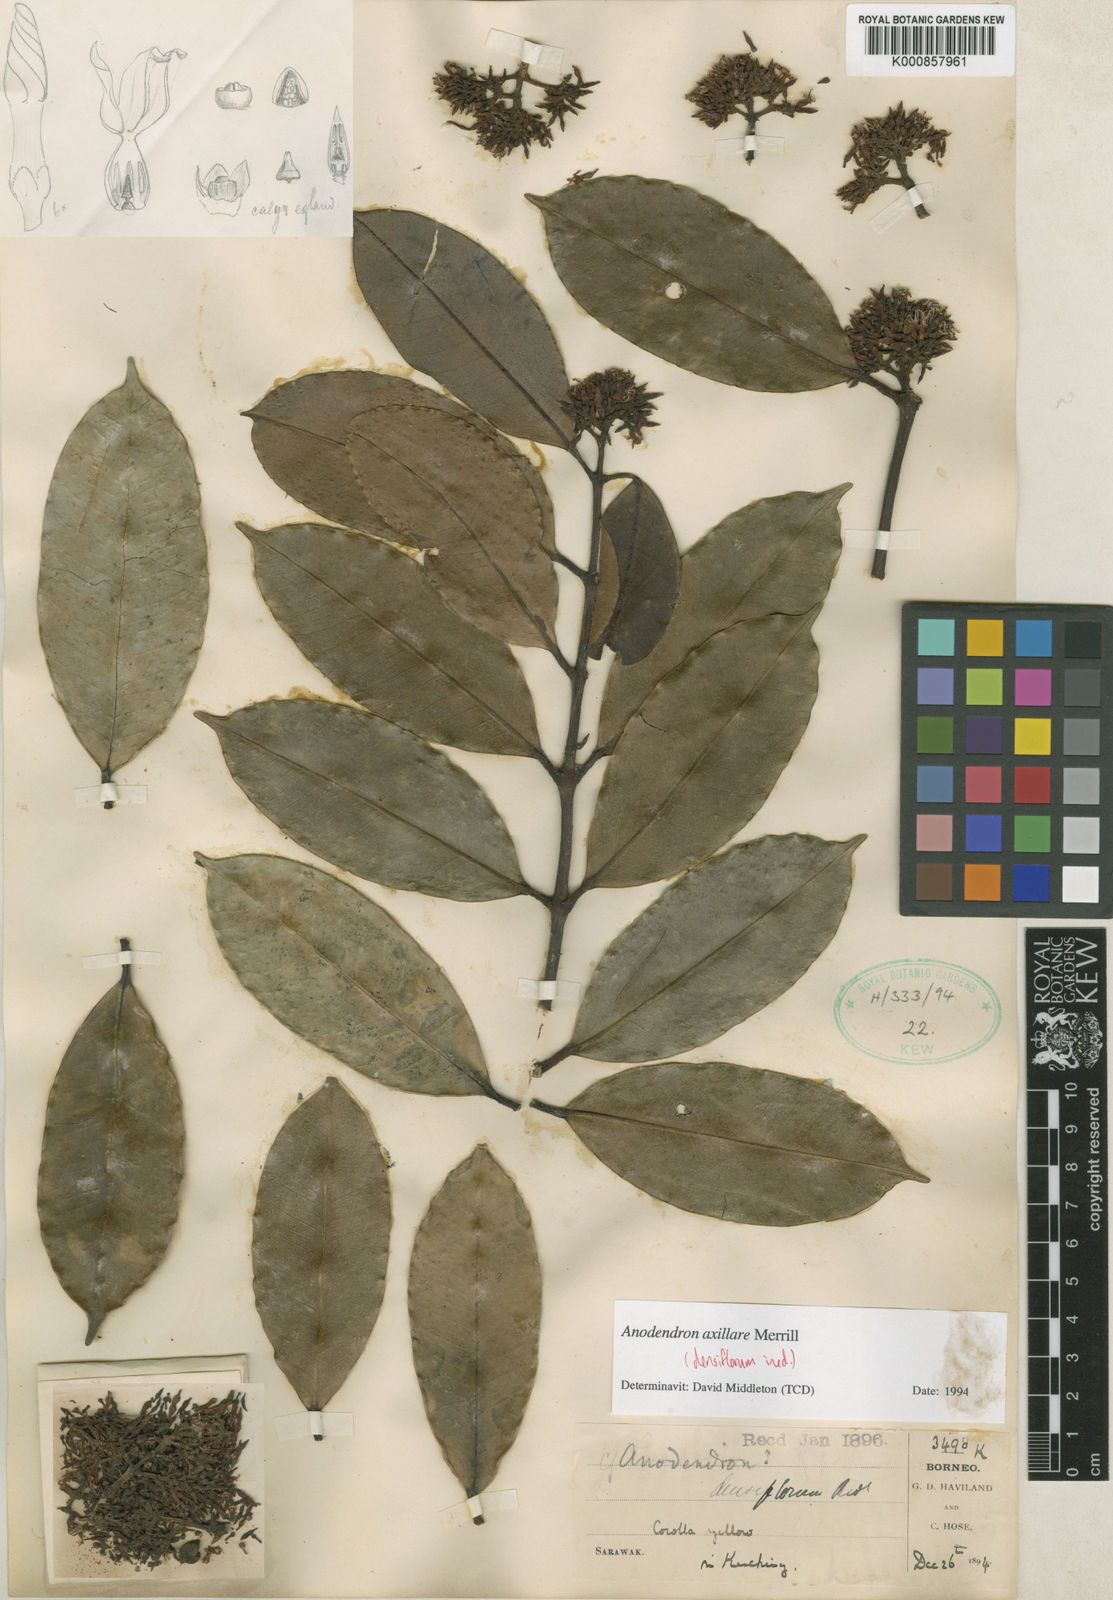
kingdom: Plantae
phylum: Tracheophyta
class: Magnoliopsida
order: Gentianales
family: Apocynaceae
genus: Anodendron
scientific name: Anodendron axillare
